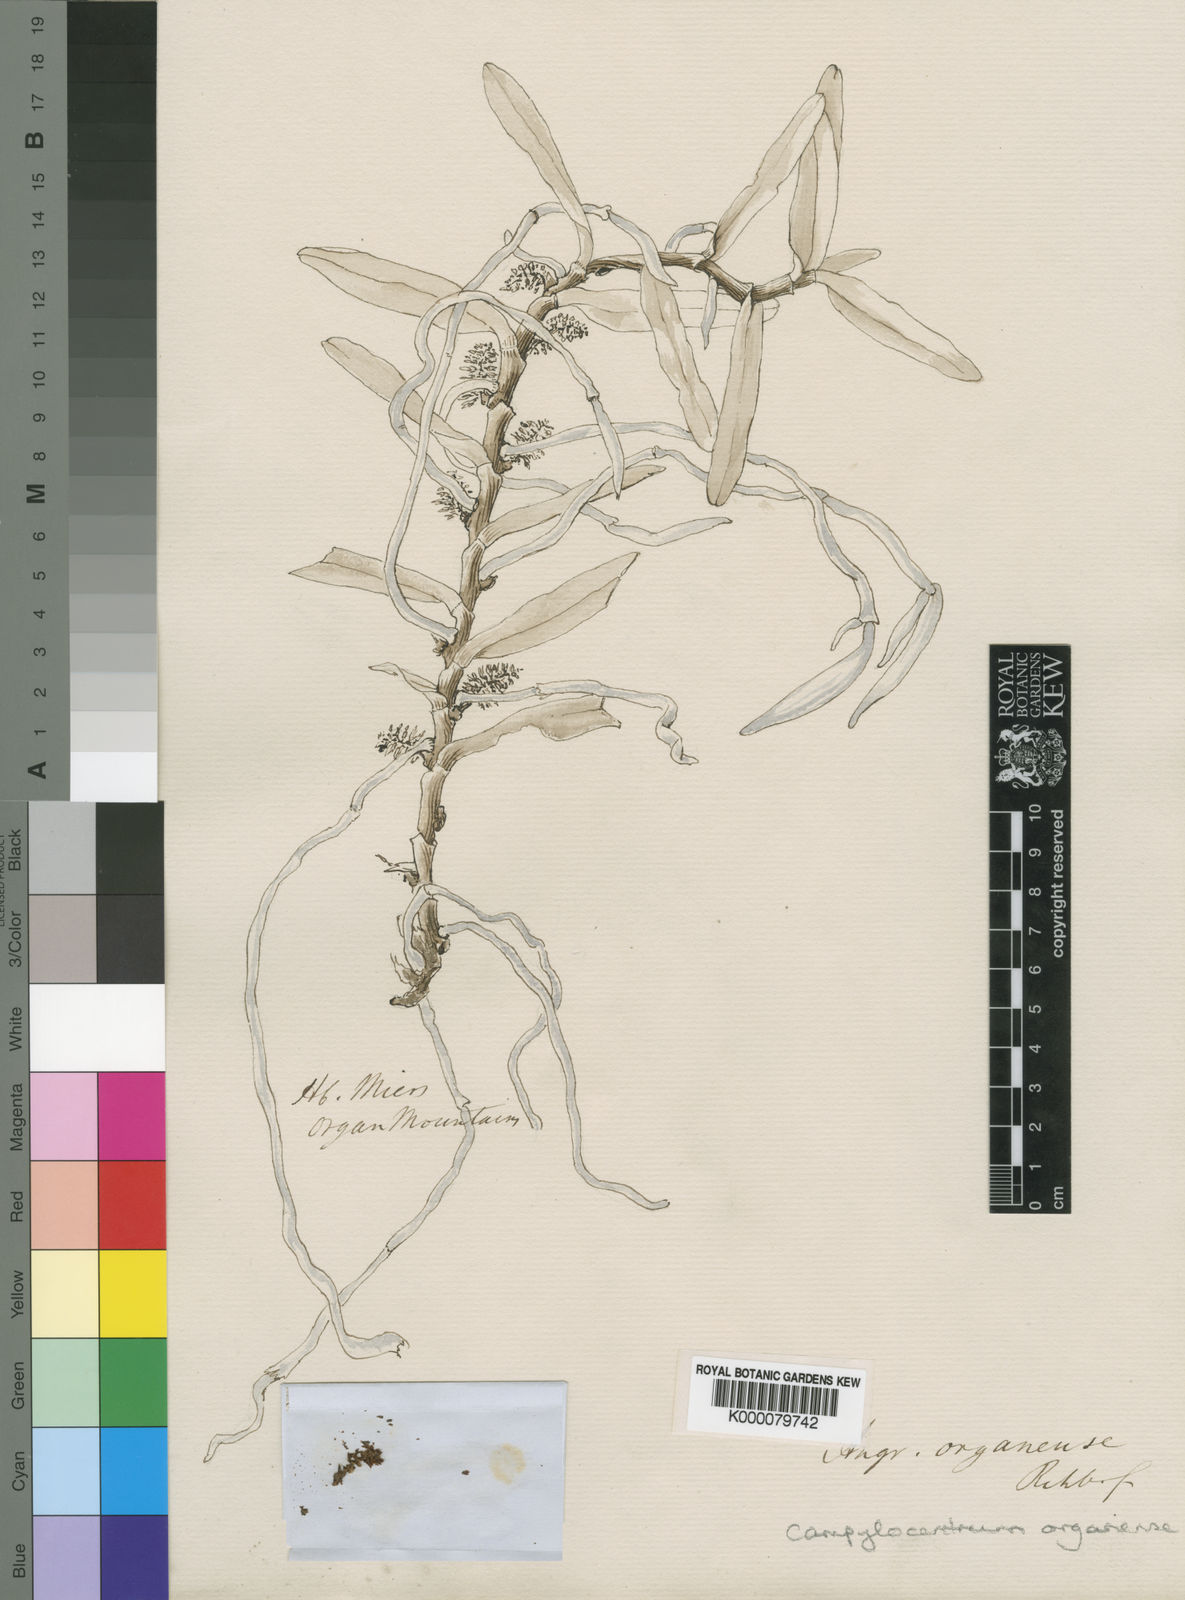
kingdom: Plantae
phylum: Tracheophyta
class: Liliopsida
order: Asparagales
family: Orchidaceae
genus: Campylocentrum
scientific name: Campylocentrum organense
